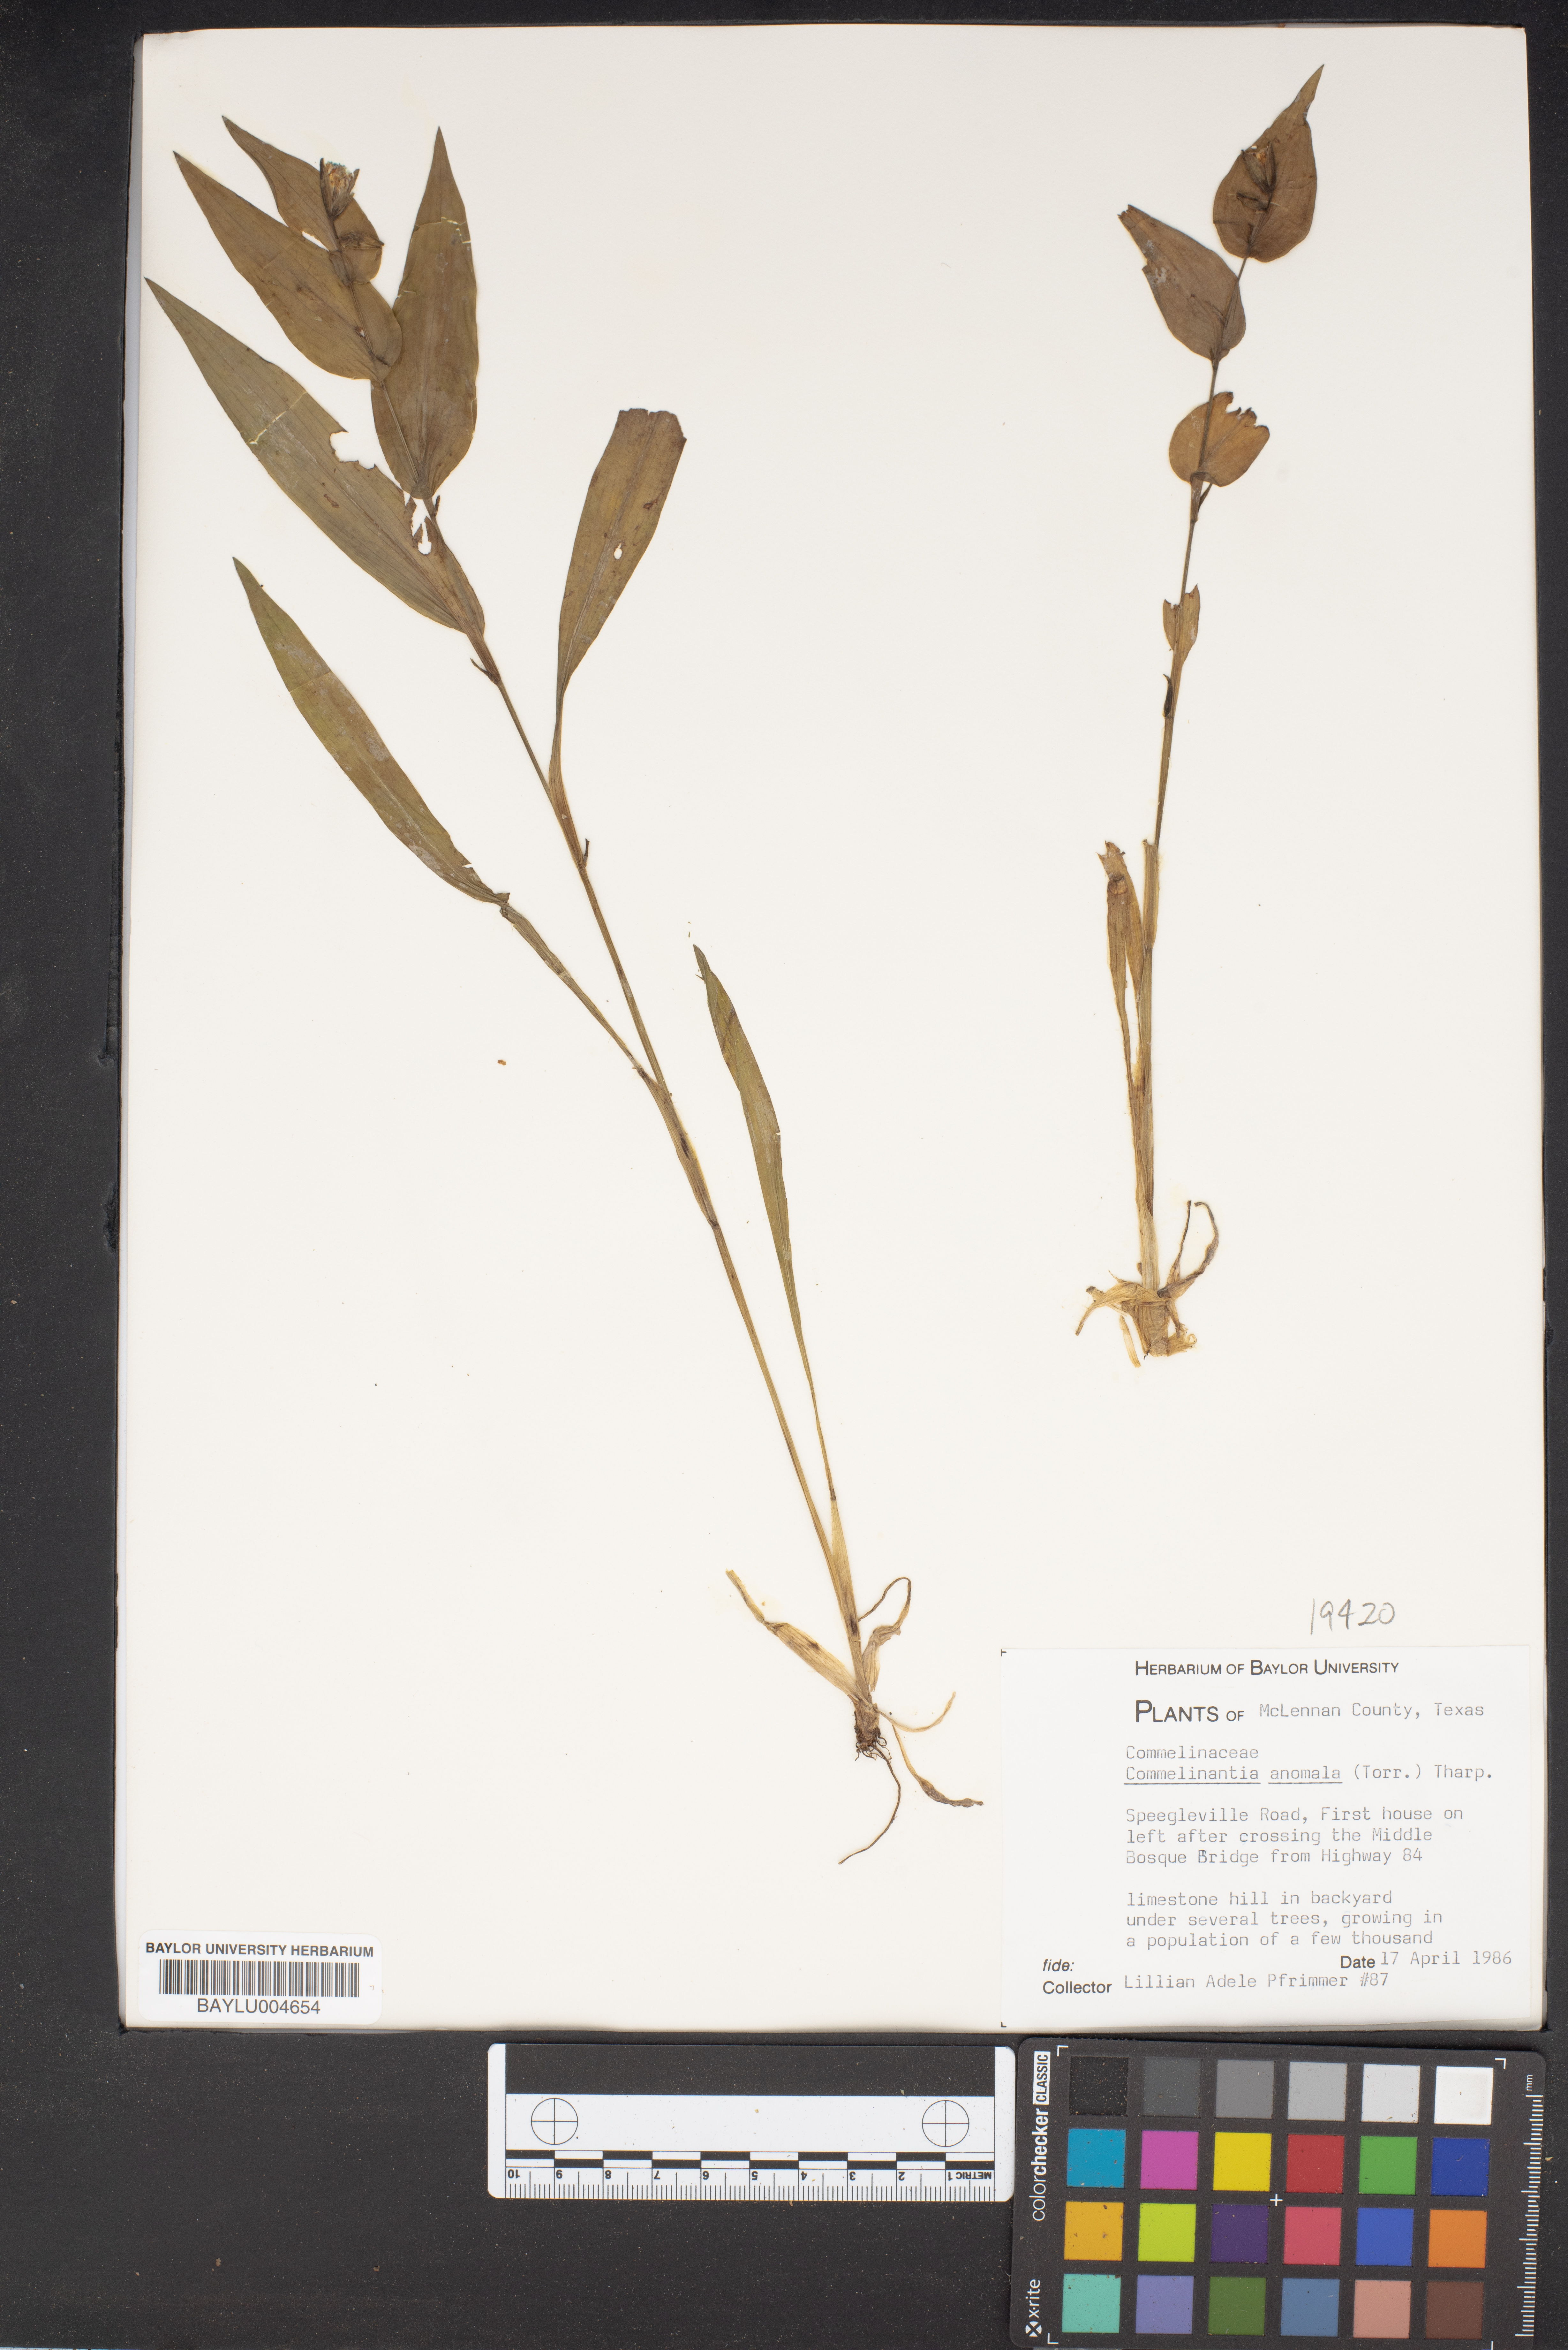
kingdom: Plantae
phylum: Tracheophyta
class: Liliopsida
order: Commelinales
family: Commelinaceae
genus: Tinantia
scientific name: Tinantia anomala
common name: False dayflower
